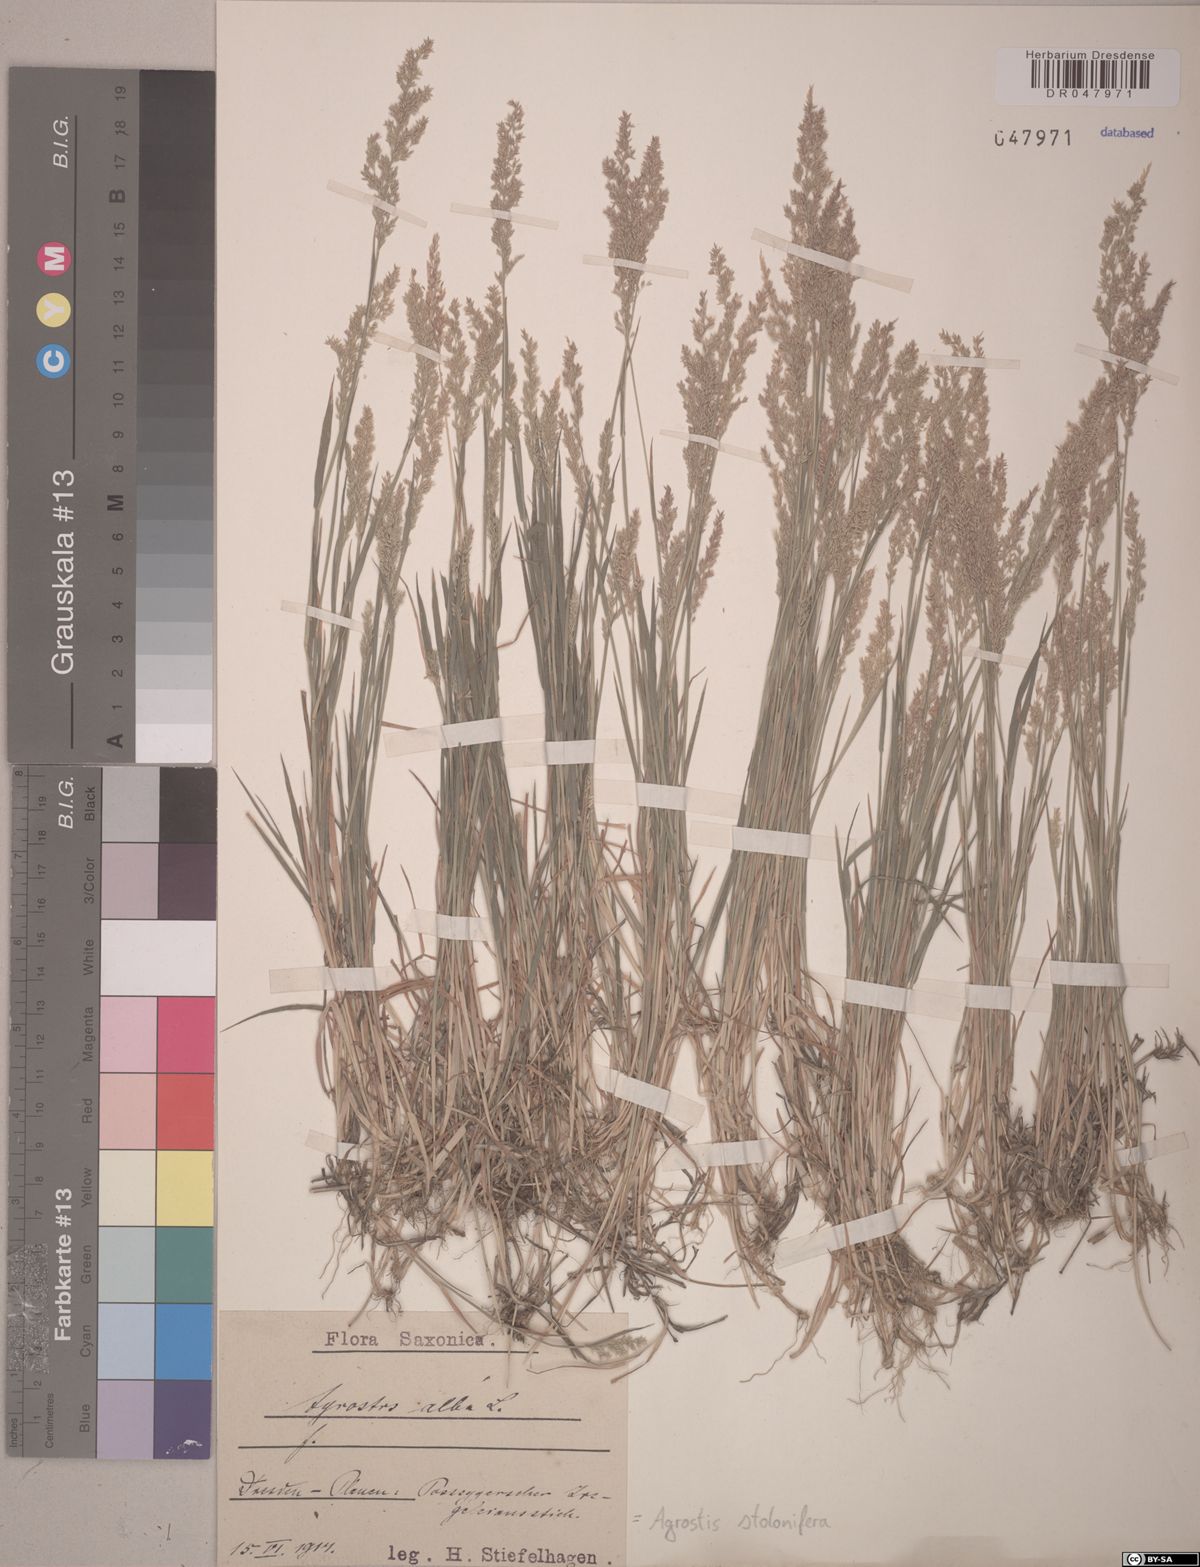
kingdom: Plantae
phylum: Tracheophyta
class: Liliopsida
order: Poales
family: Poaceae
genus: Agrostis
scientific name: Agrostis stolonifera
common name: Creeping bentgrass
